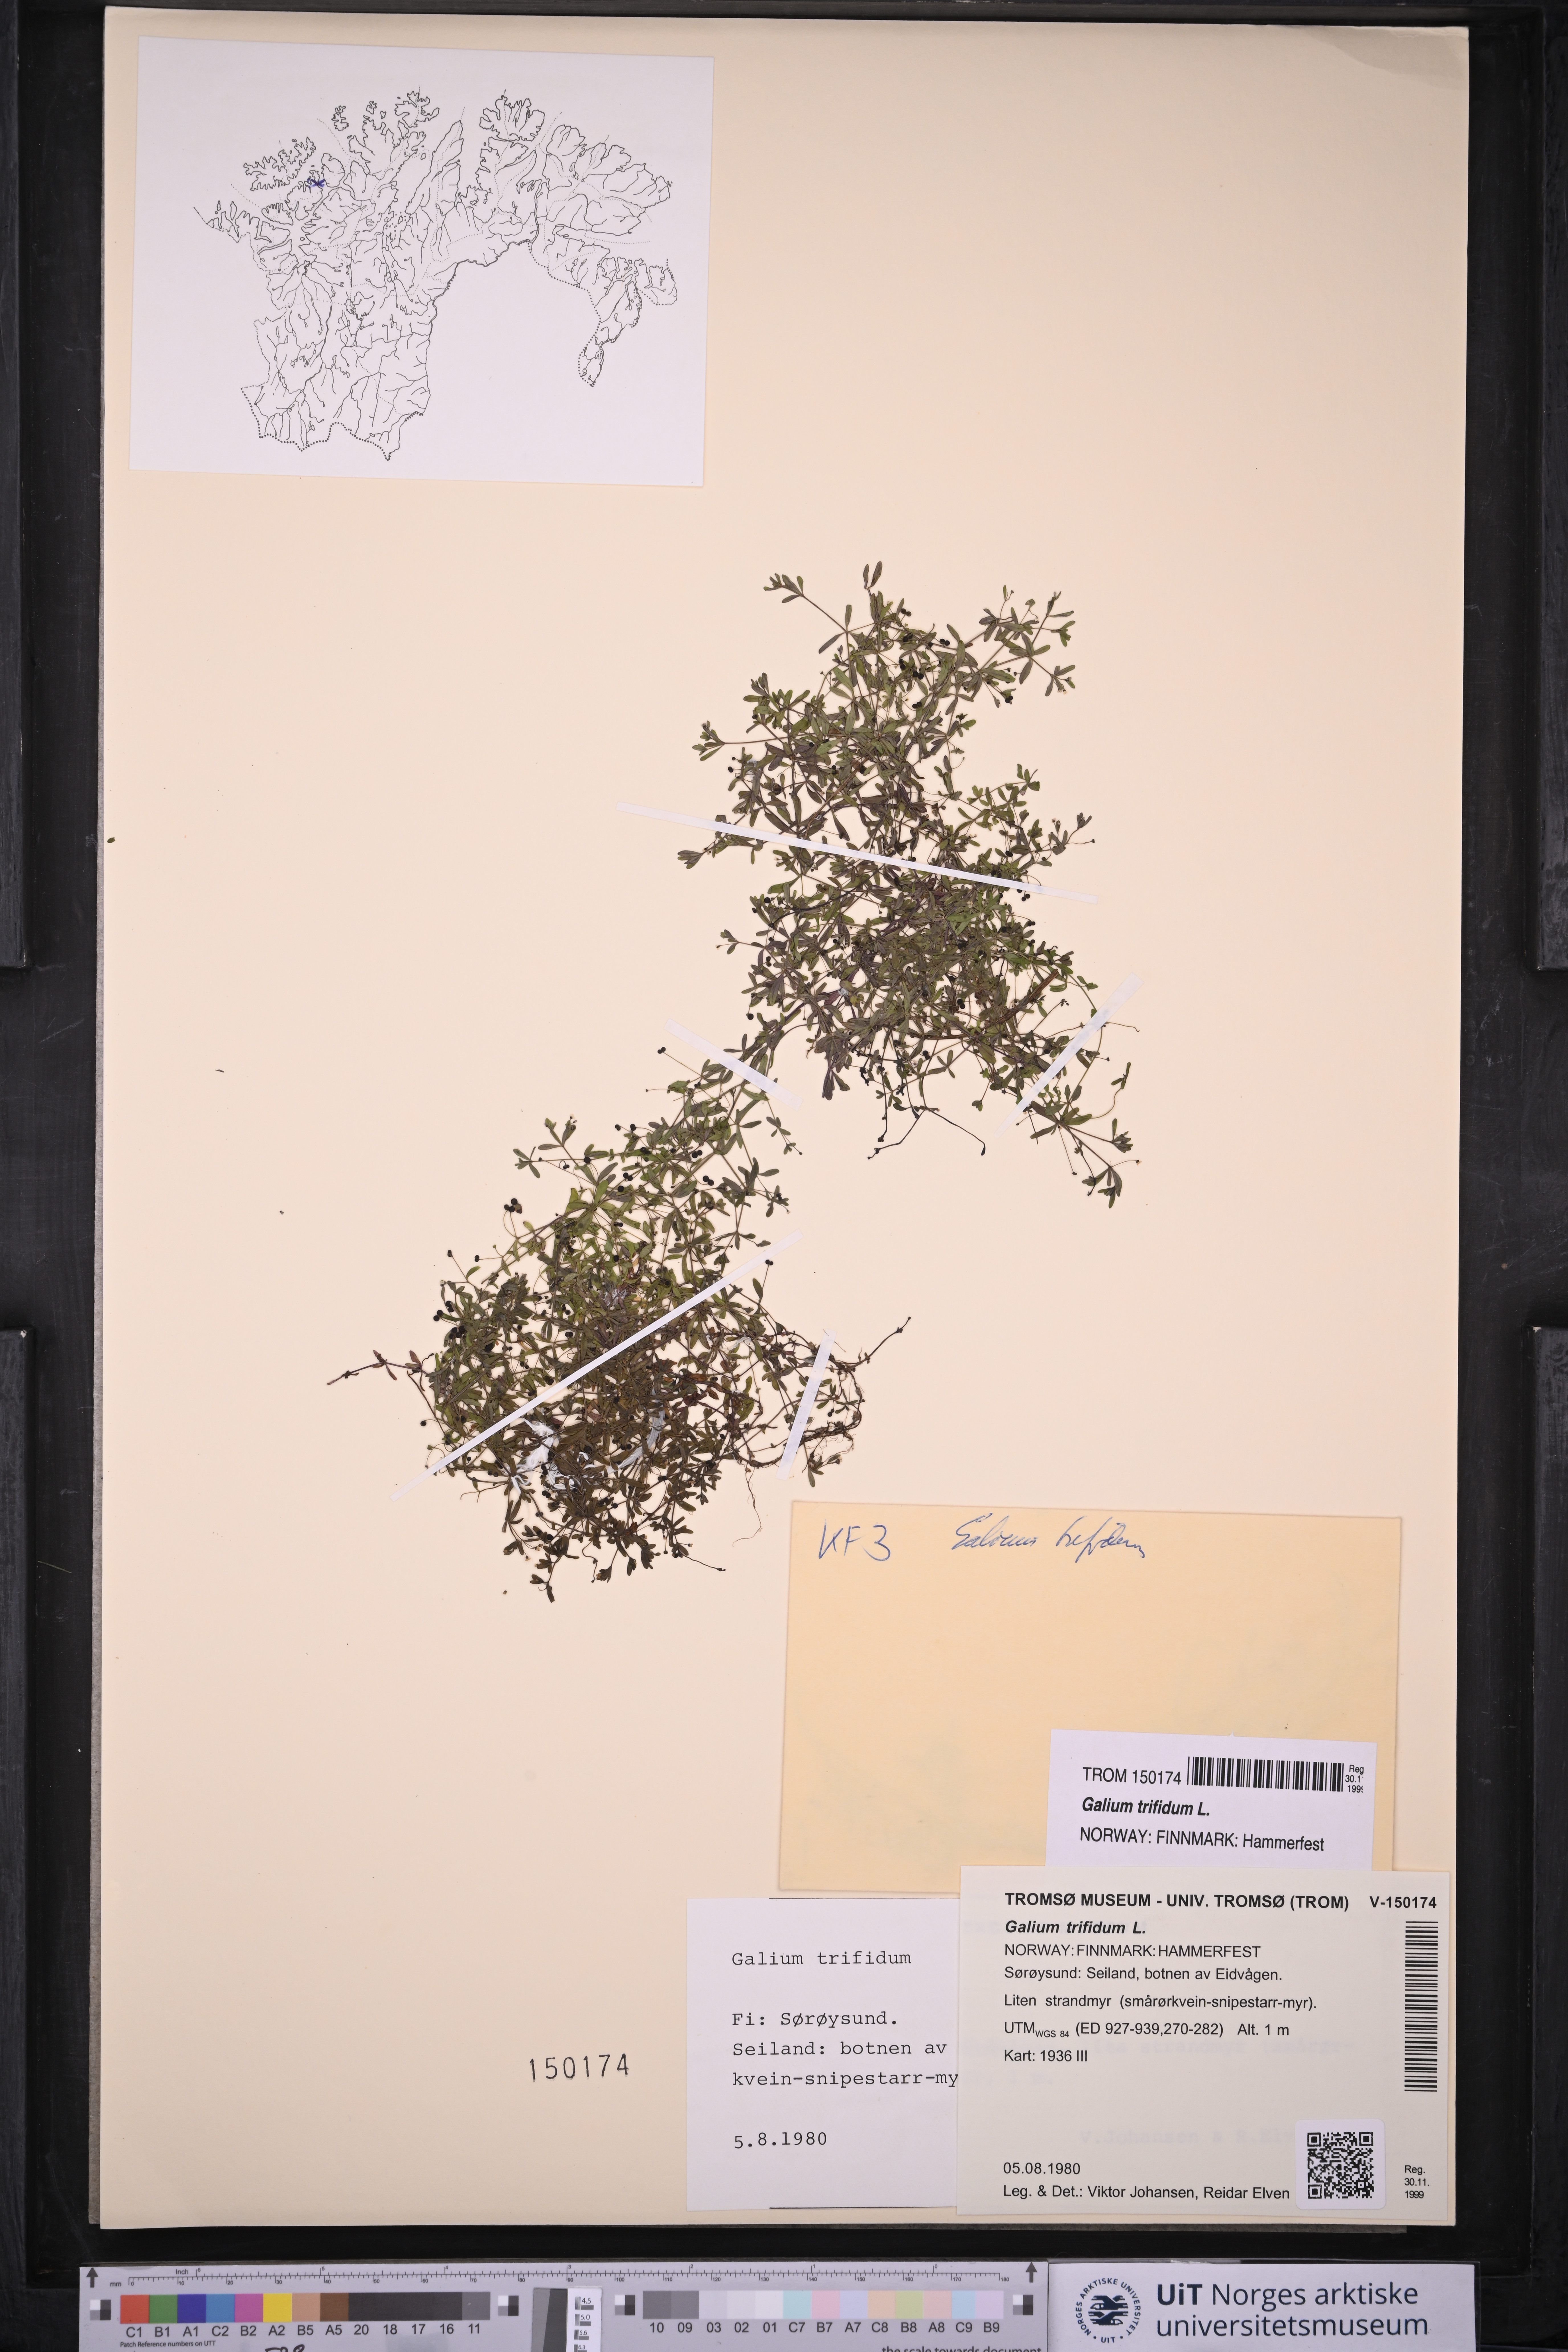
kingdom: Plantae
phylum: Tracheophyta
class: Magnoliopsida
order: Gentianales
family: Rubiaceae
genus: Galium
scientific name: Galium trifidum
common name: Small bedstraw
